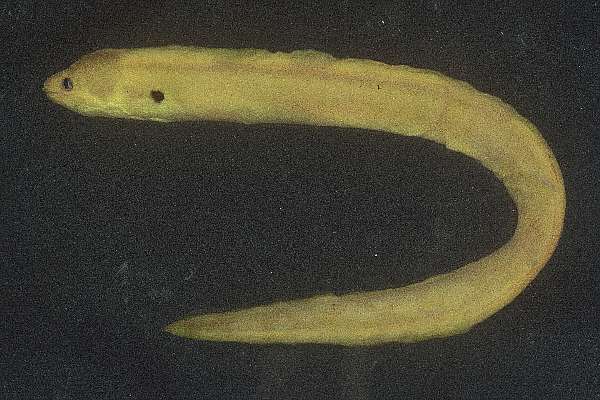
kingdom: Animalia
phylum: Chordata
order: Anguilliformes
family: Muraenidae
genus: Gymnothorax
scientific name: Gymnothorax melatremus
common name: Dwarf moray
